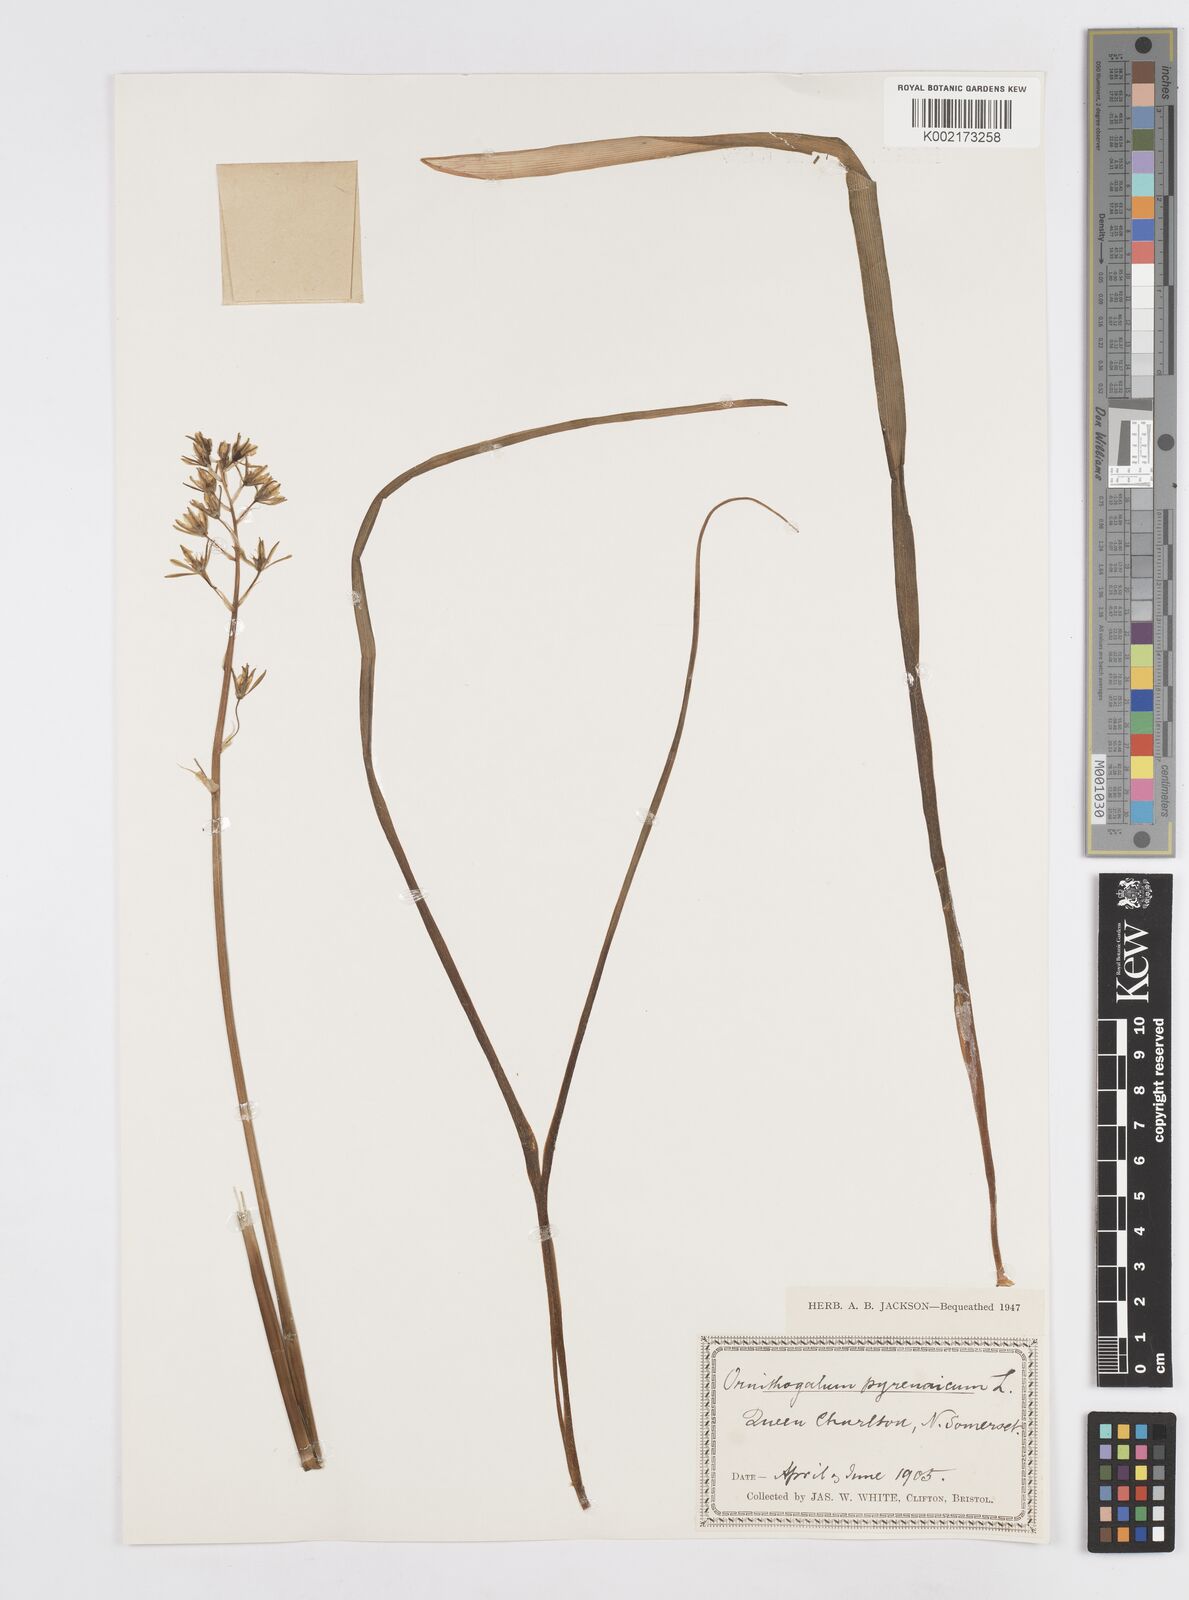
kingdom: Plantae
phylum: Tracheophyta
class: Liliopsida
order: Asparagales
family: Asparagaceae
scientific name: Asparagaceae
